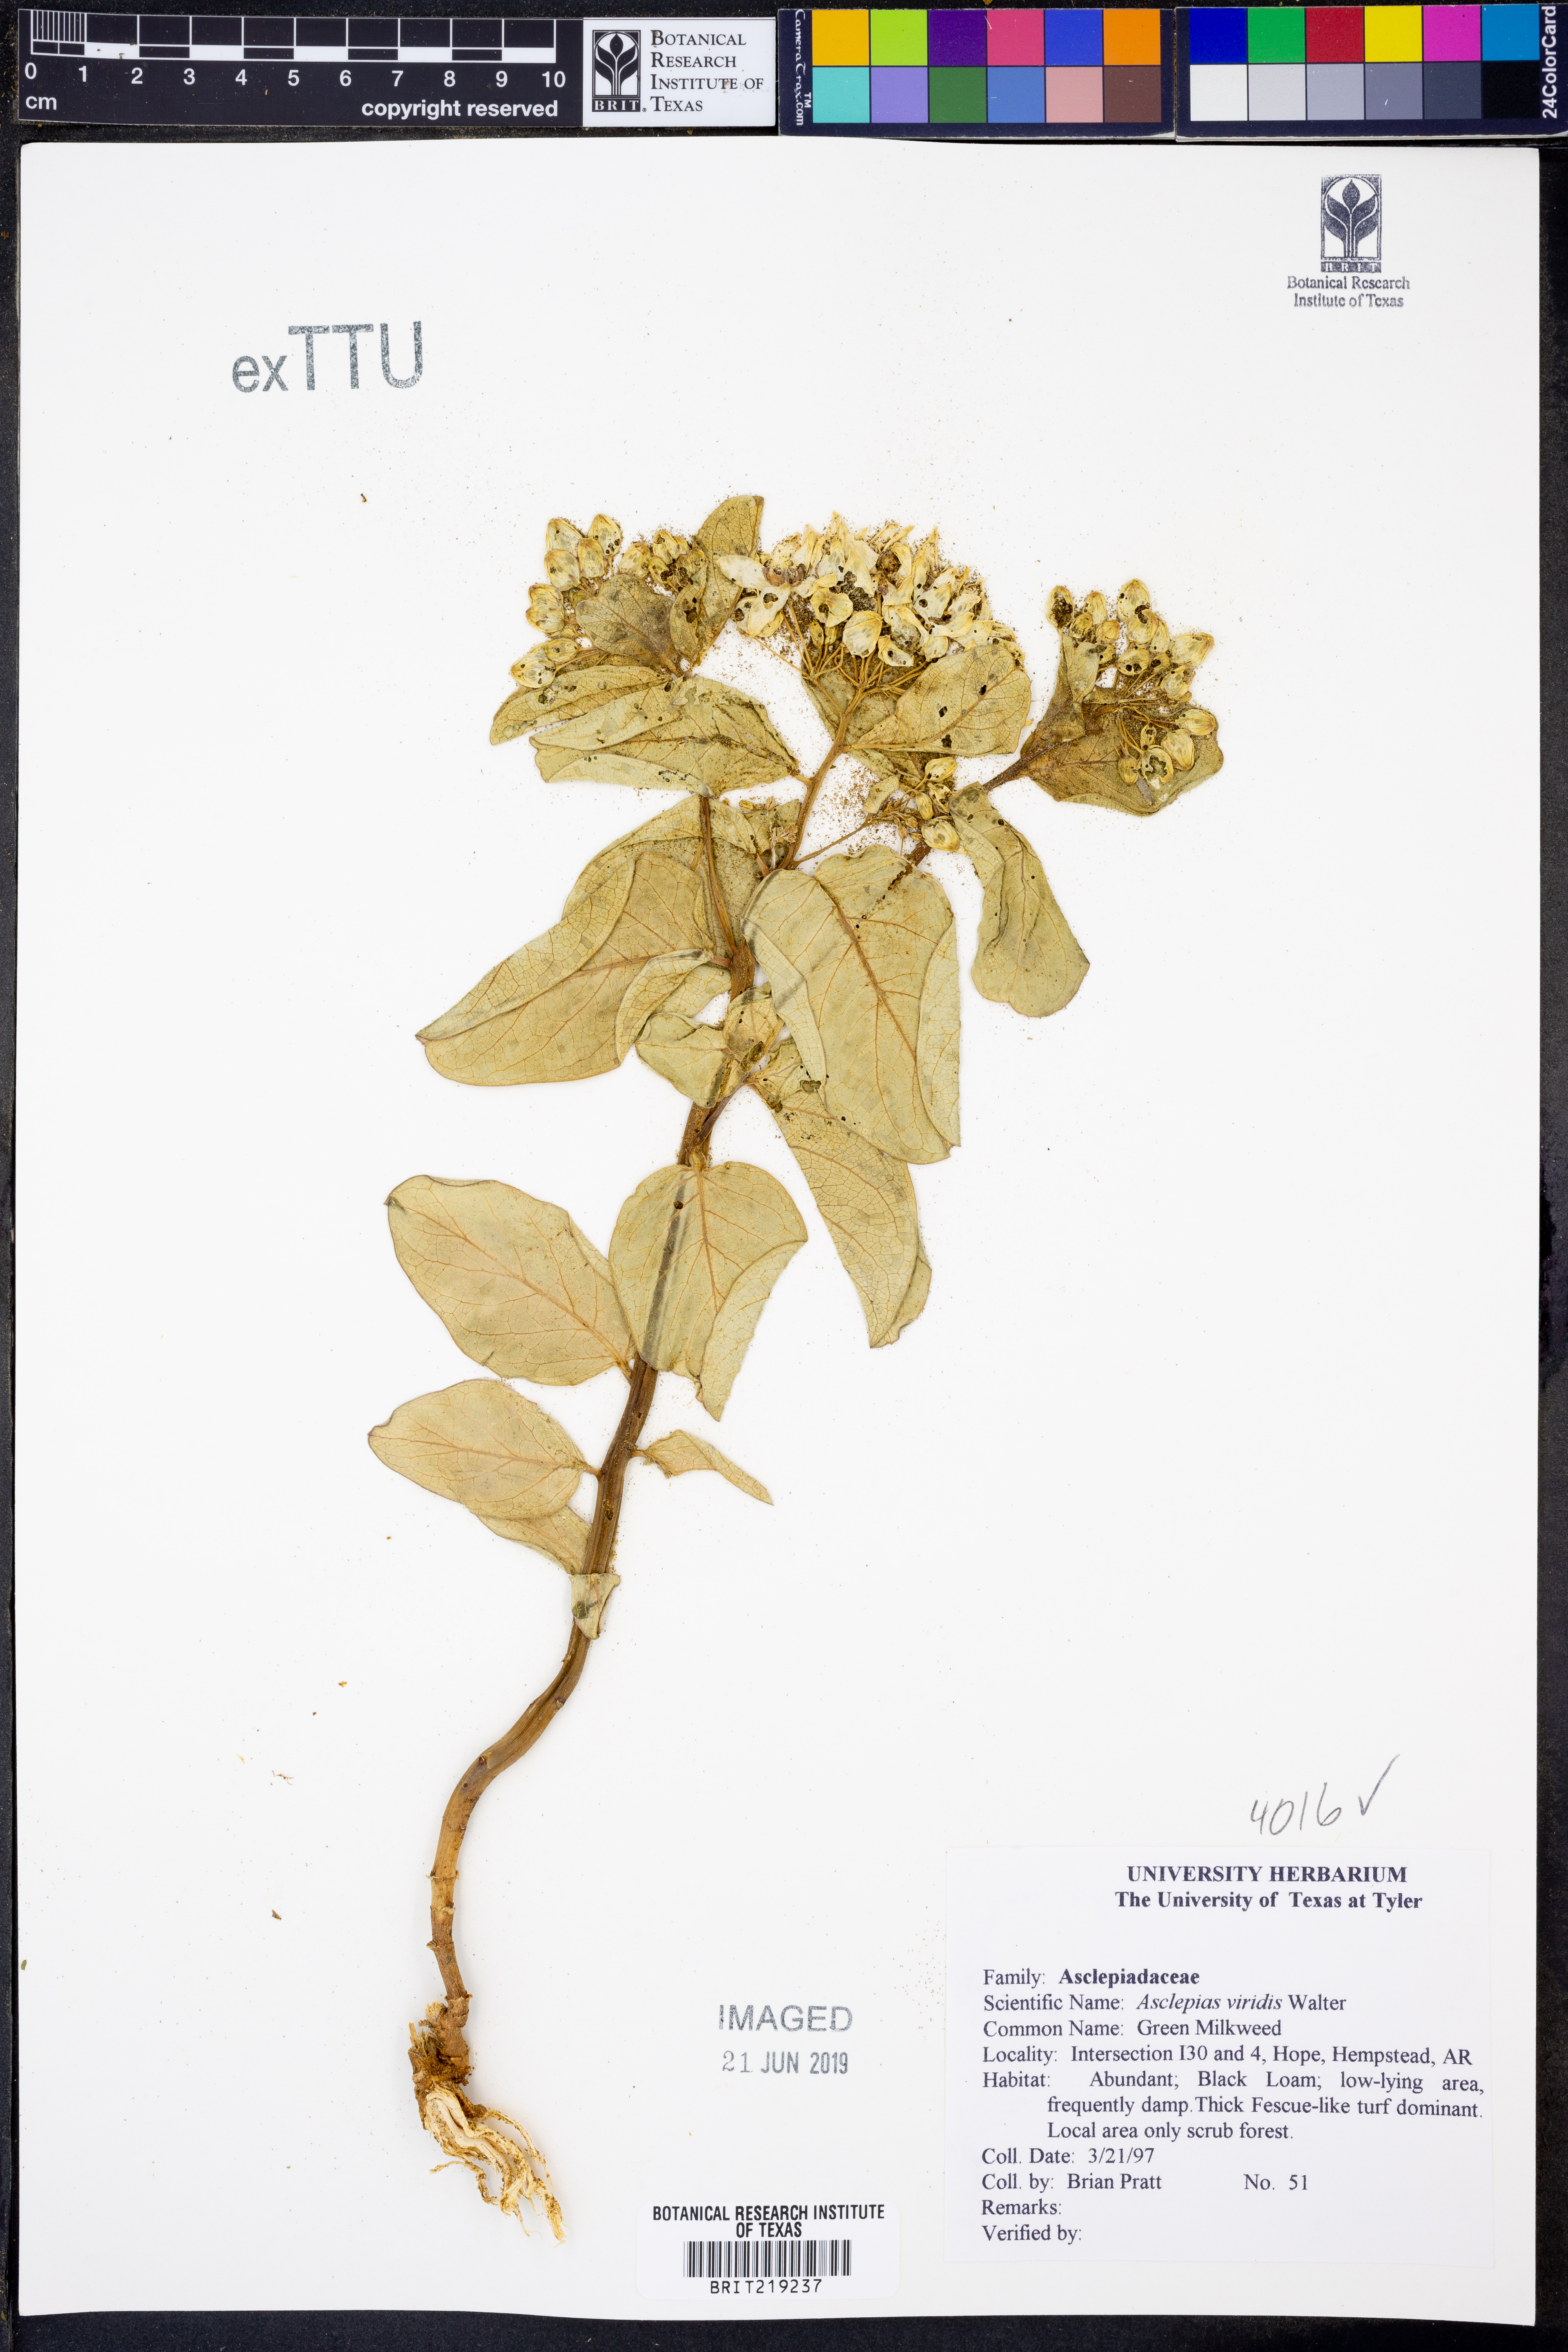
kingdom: Plantae
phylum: Tracheophyta
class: Magnoliopsida
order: Gentianales
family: Apocynaceae
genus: Asclepias
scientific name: Asclepias viridis
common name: Antelope-horns
